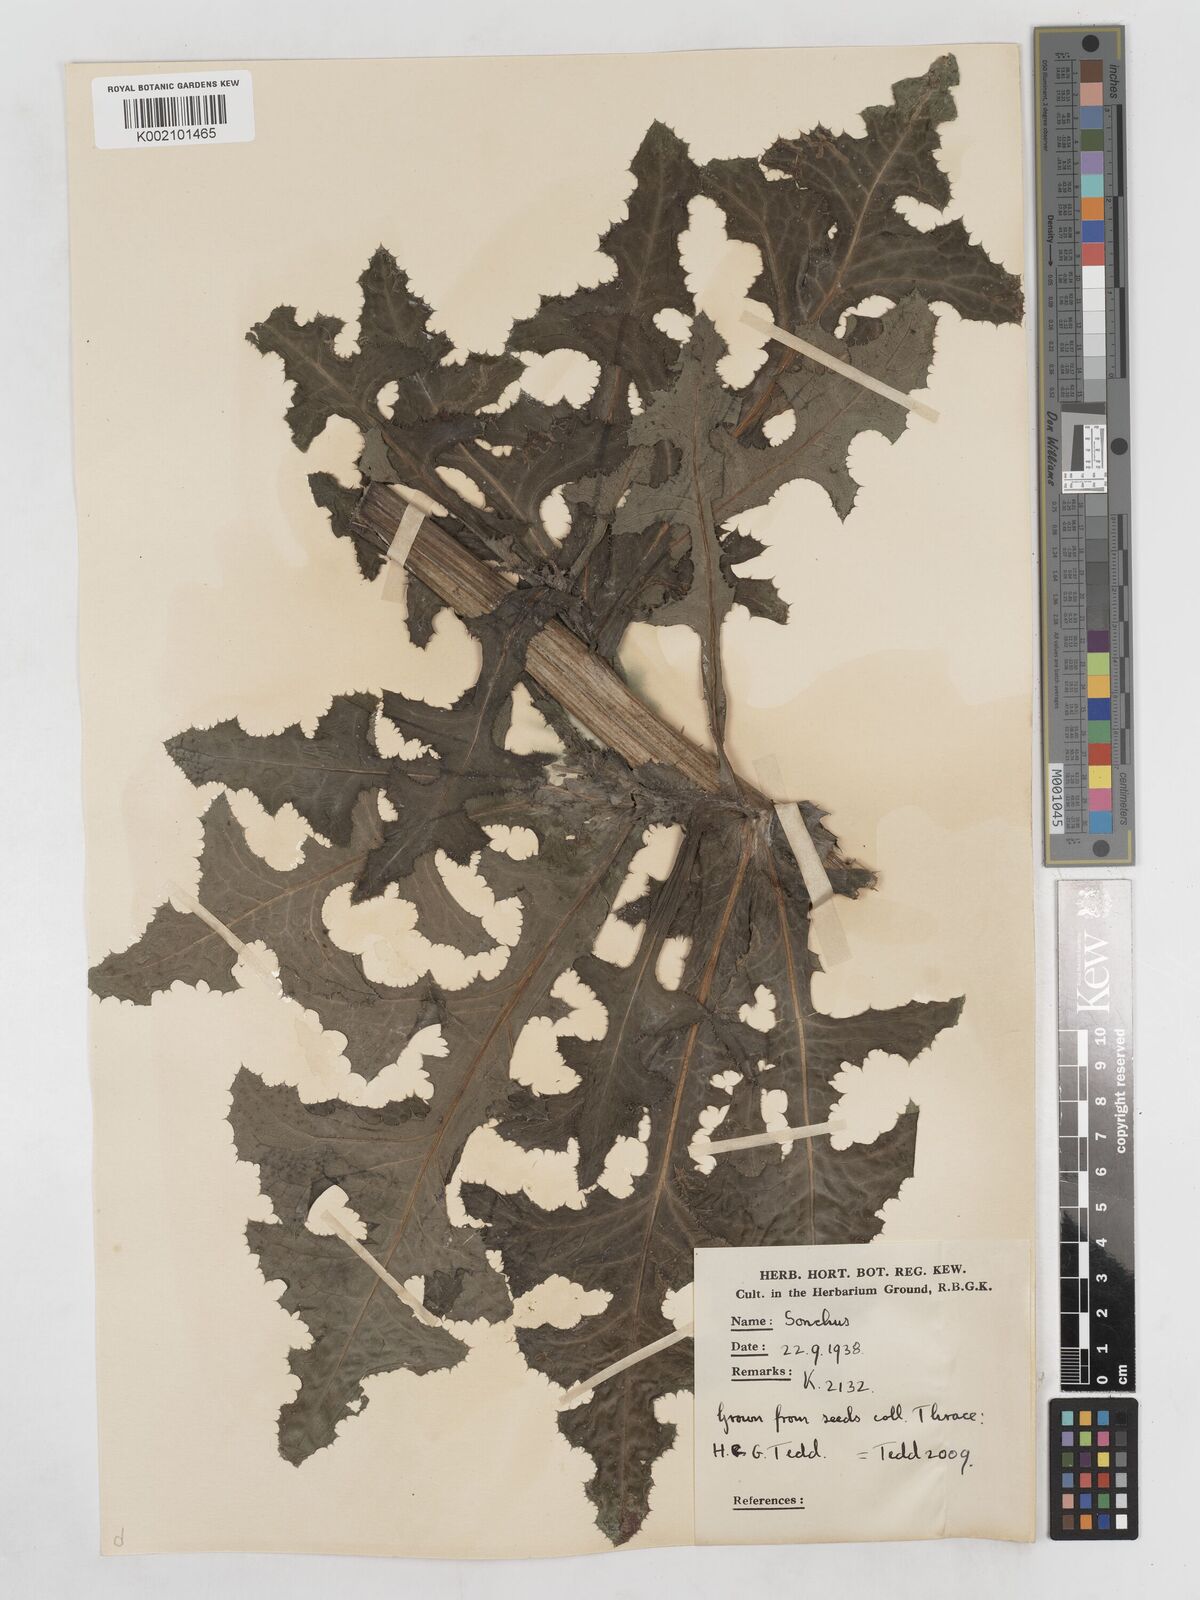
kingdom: Plantae
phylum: Tracheophyta
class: Magnoliopsida
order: Asterales
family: Asteraceae
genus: Sonchus
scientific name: Sonchus arvensis
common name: Perennial sow-thistle
